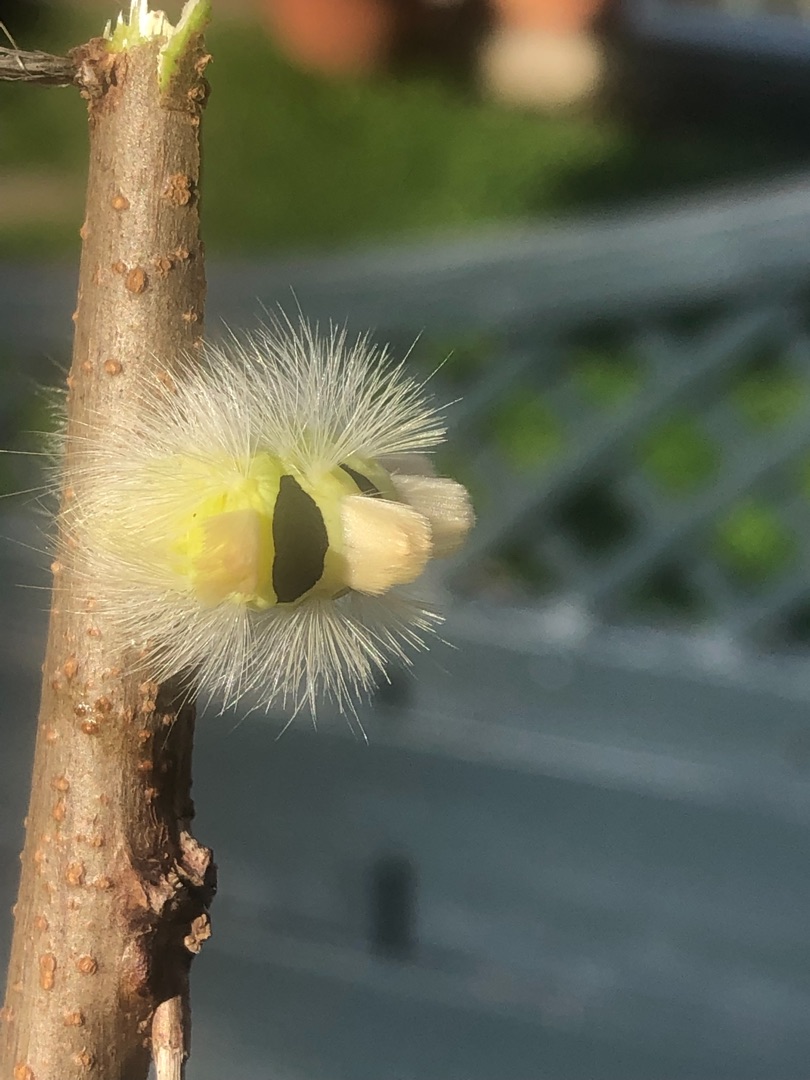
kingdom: Animalia
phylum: Arthropoda
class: Insecta
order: Lepidoptera
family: Erebidae
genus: Calliteara
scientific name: Calliteara pudibunda
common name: Bøgenonne
